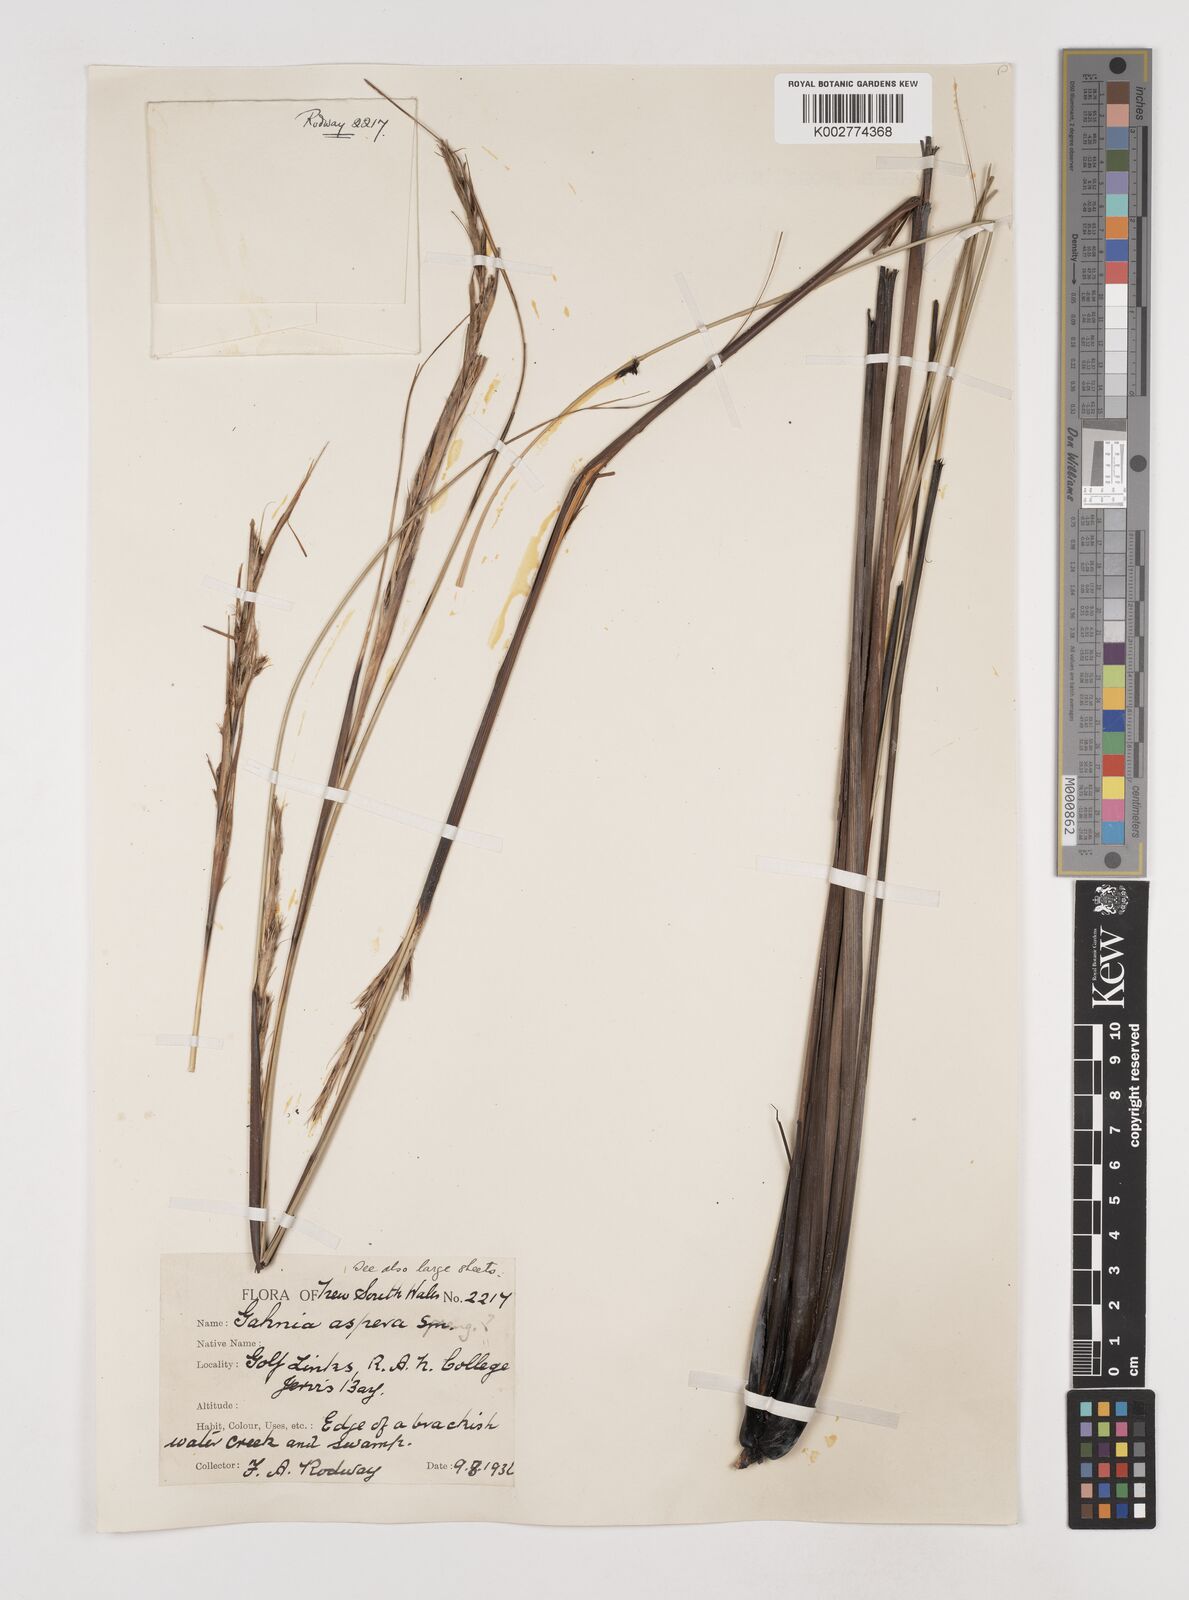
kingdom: Plantae
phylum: Tracheophyta
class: Liliopsida
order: Poales
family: Cyperaceae
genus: Gahnia
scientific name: Gahnia aspera
